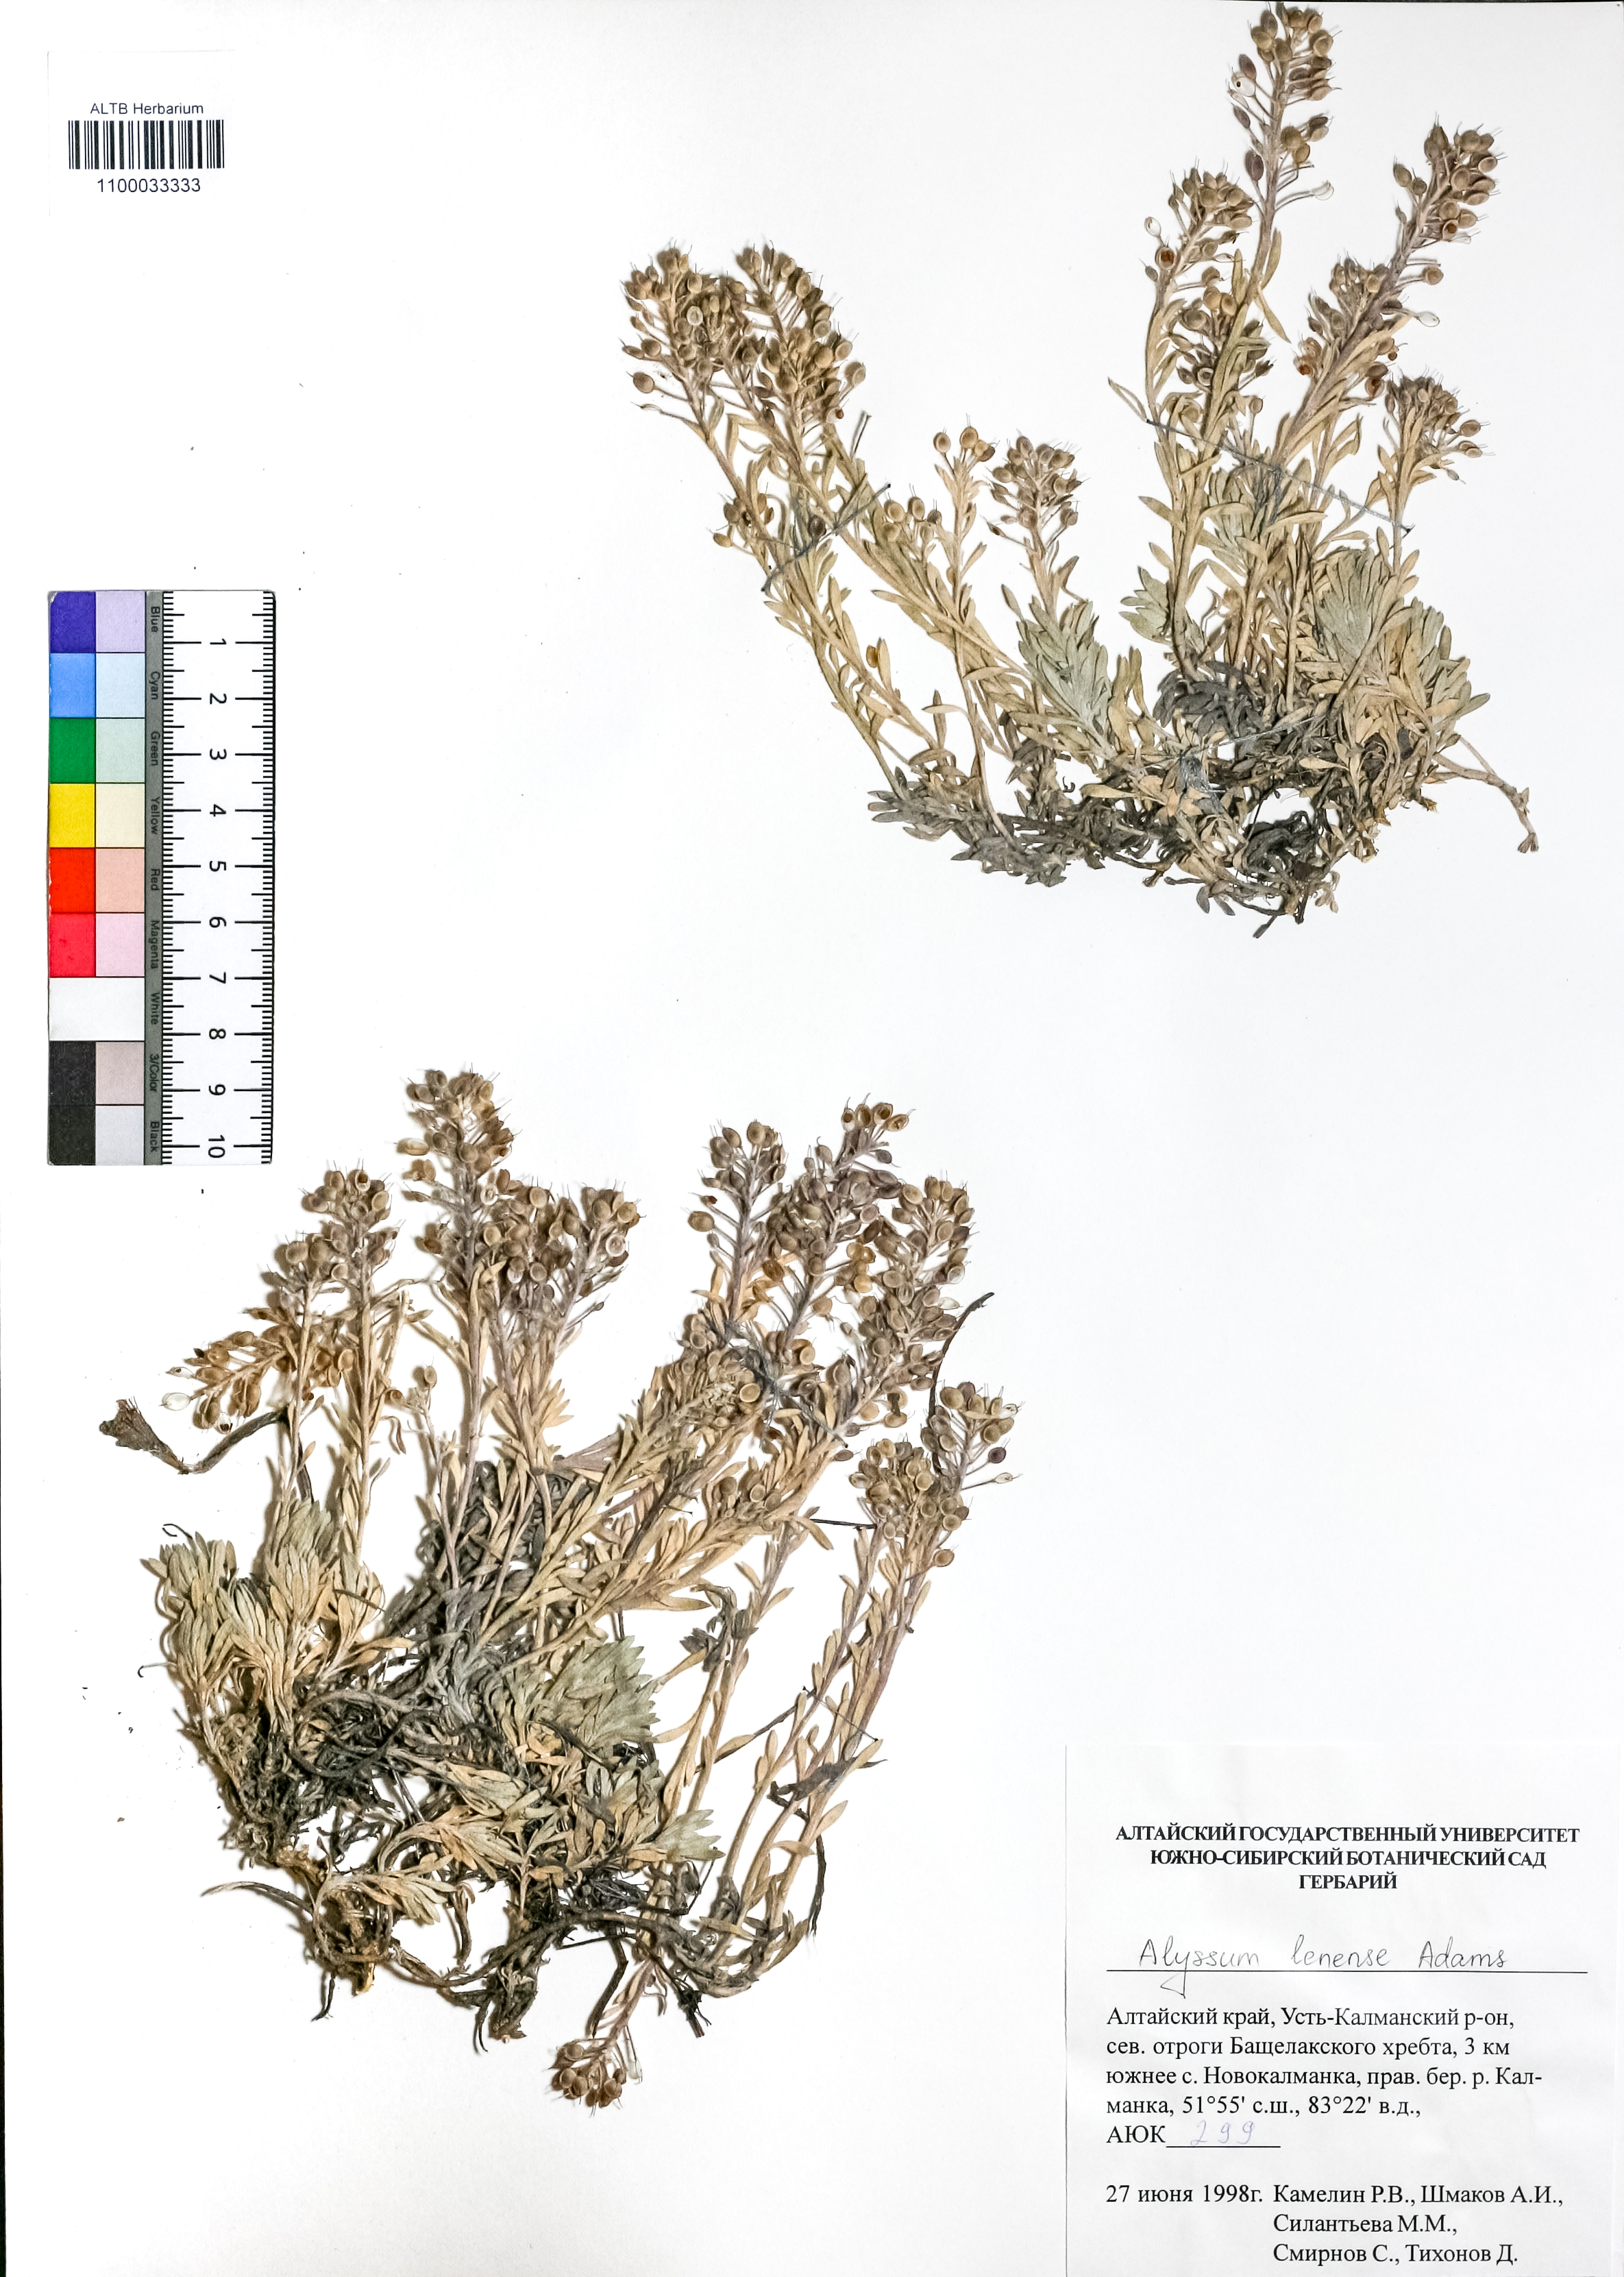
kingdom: Plantae
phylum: Tracheophyta
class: Magnoliopsida
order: Brassicales
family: Brassicaceae
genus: Alyssum
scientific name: Alyssum lenense
